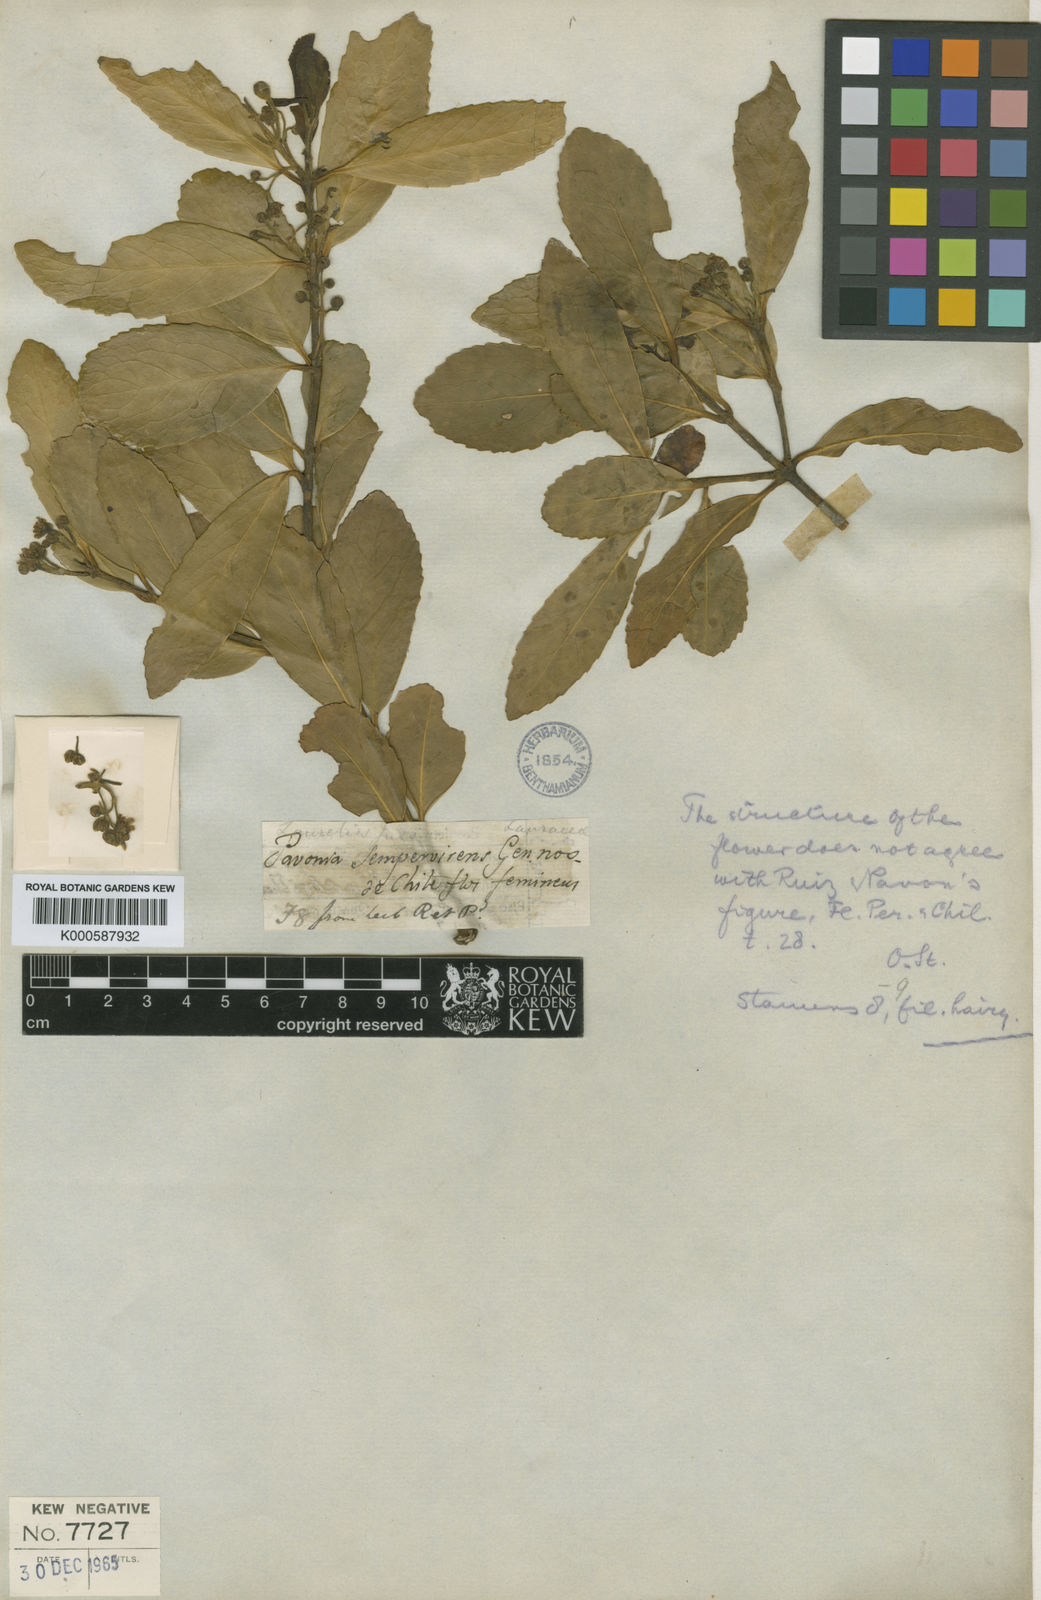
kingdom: Plantae
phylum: Tracheophyta
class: Magnoliopsida
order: Laurales
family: Atherospermataceae
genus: Laurelia
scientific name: Laurelia sempervirens
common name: Chilean laurel
